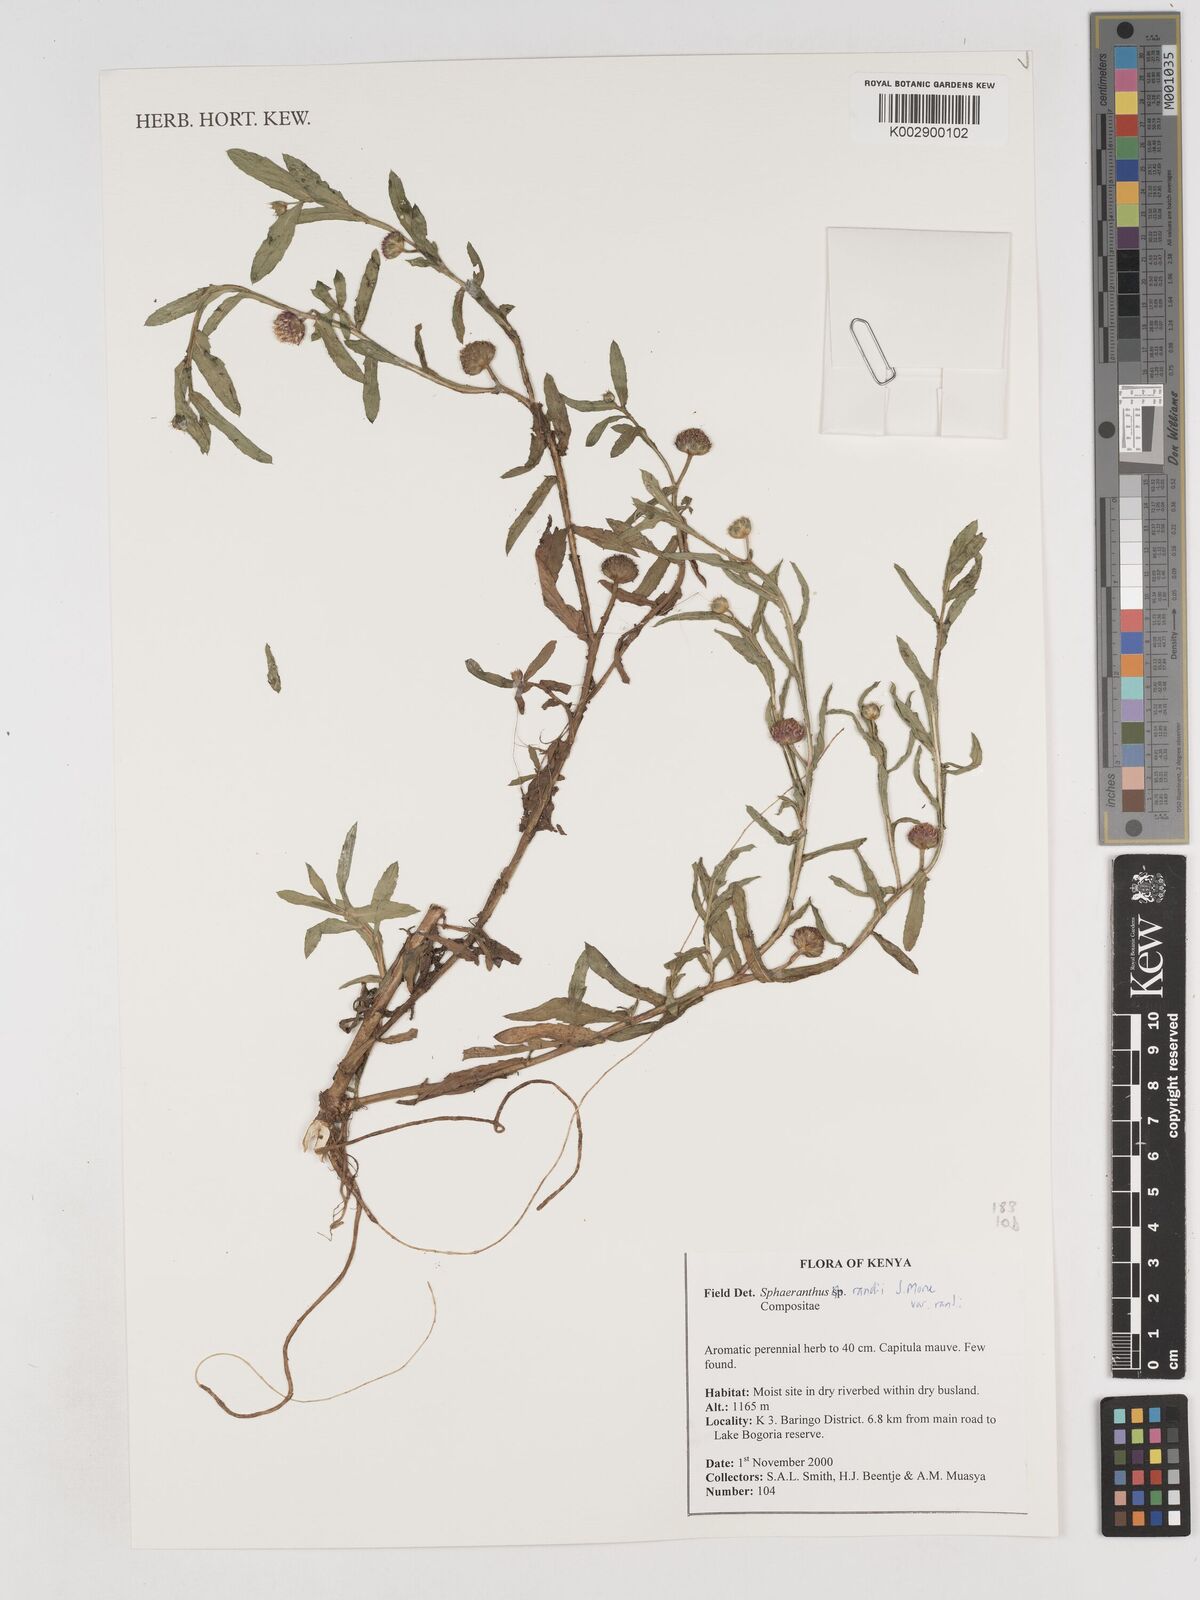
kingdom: Plantae
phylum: Tracheophyta
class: Magnoliopsida
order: Asterales
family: Asteraceae
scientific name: Asteraceae
